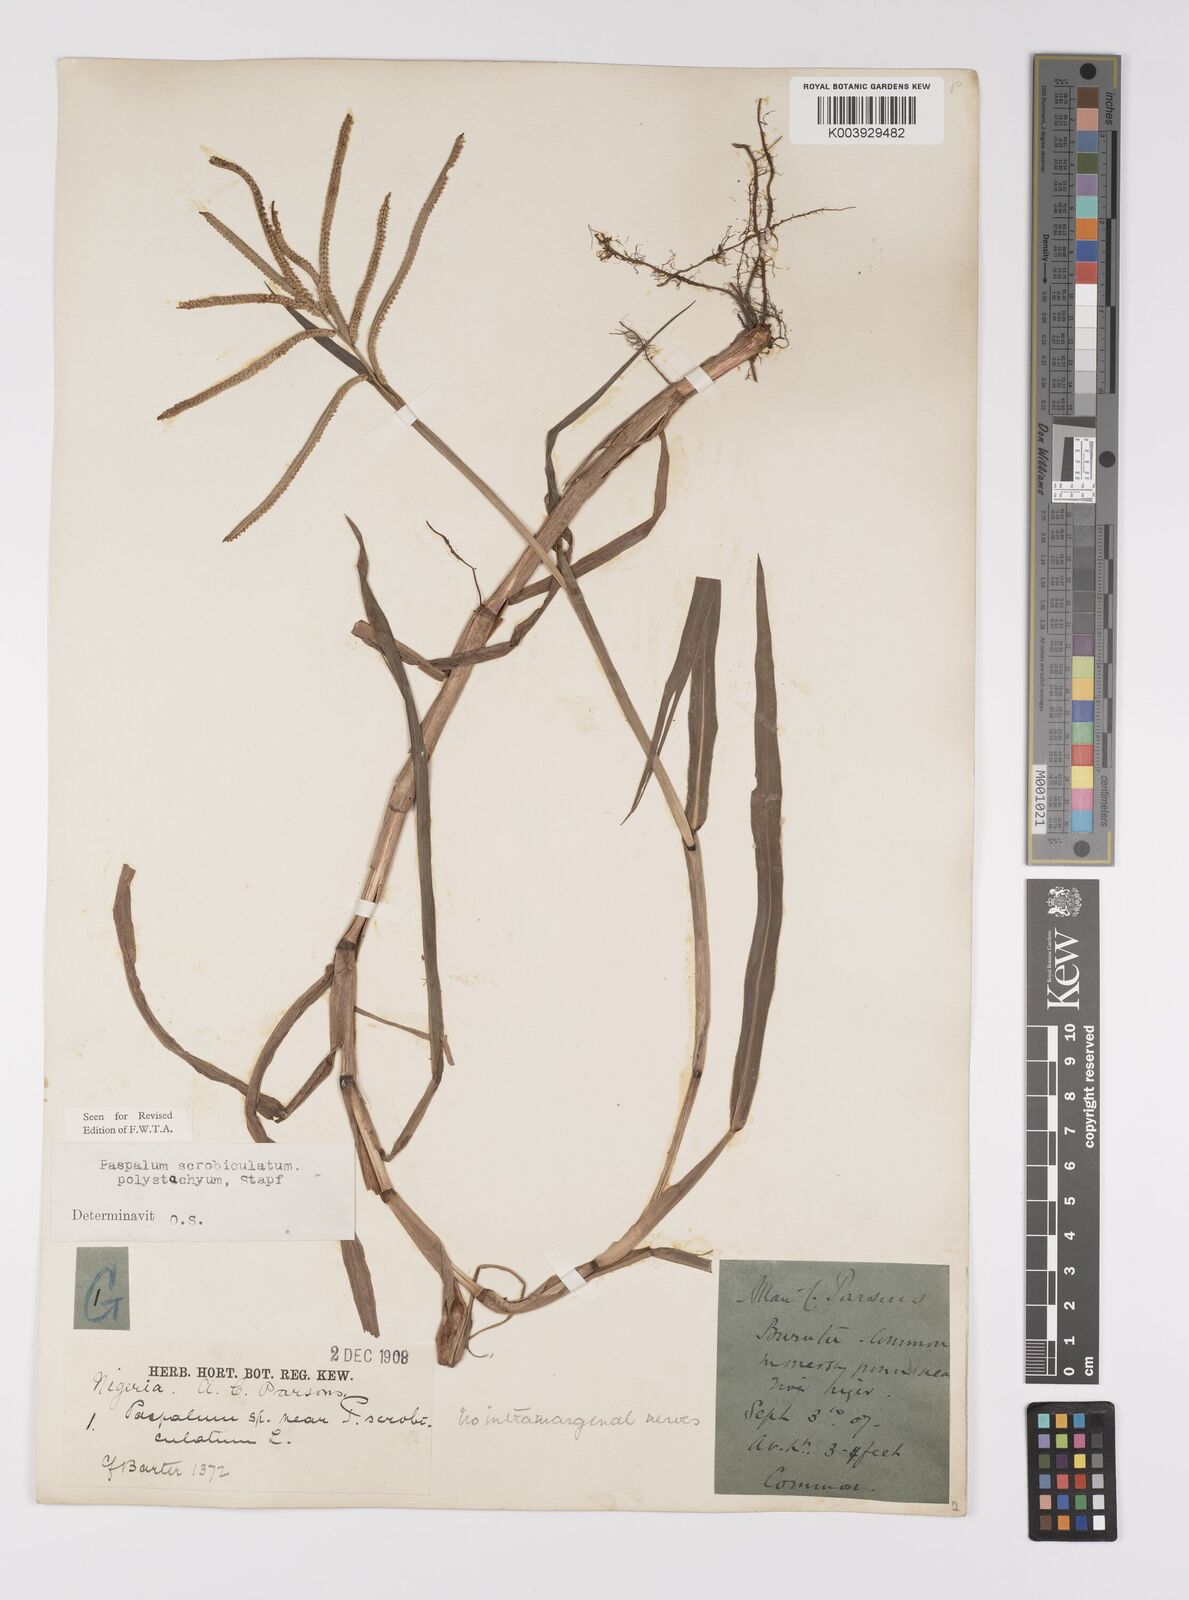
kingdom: Plantae
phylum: Tracheophyta
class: Liliopsida
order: Poales
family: Poaceae
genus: Paspalum
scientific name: Paspalum scrobiculatum
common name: Kodo millet
